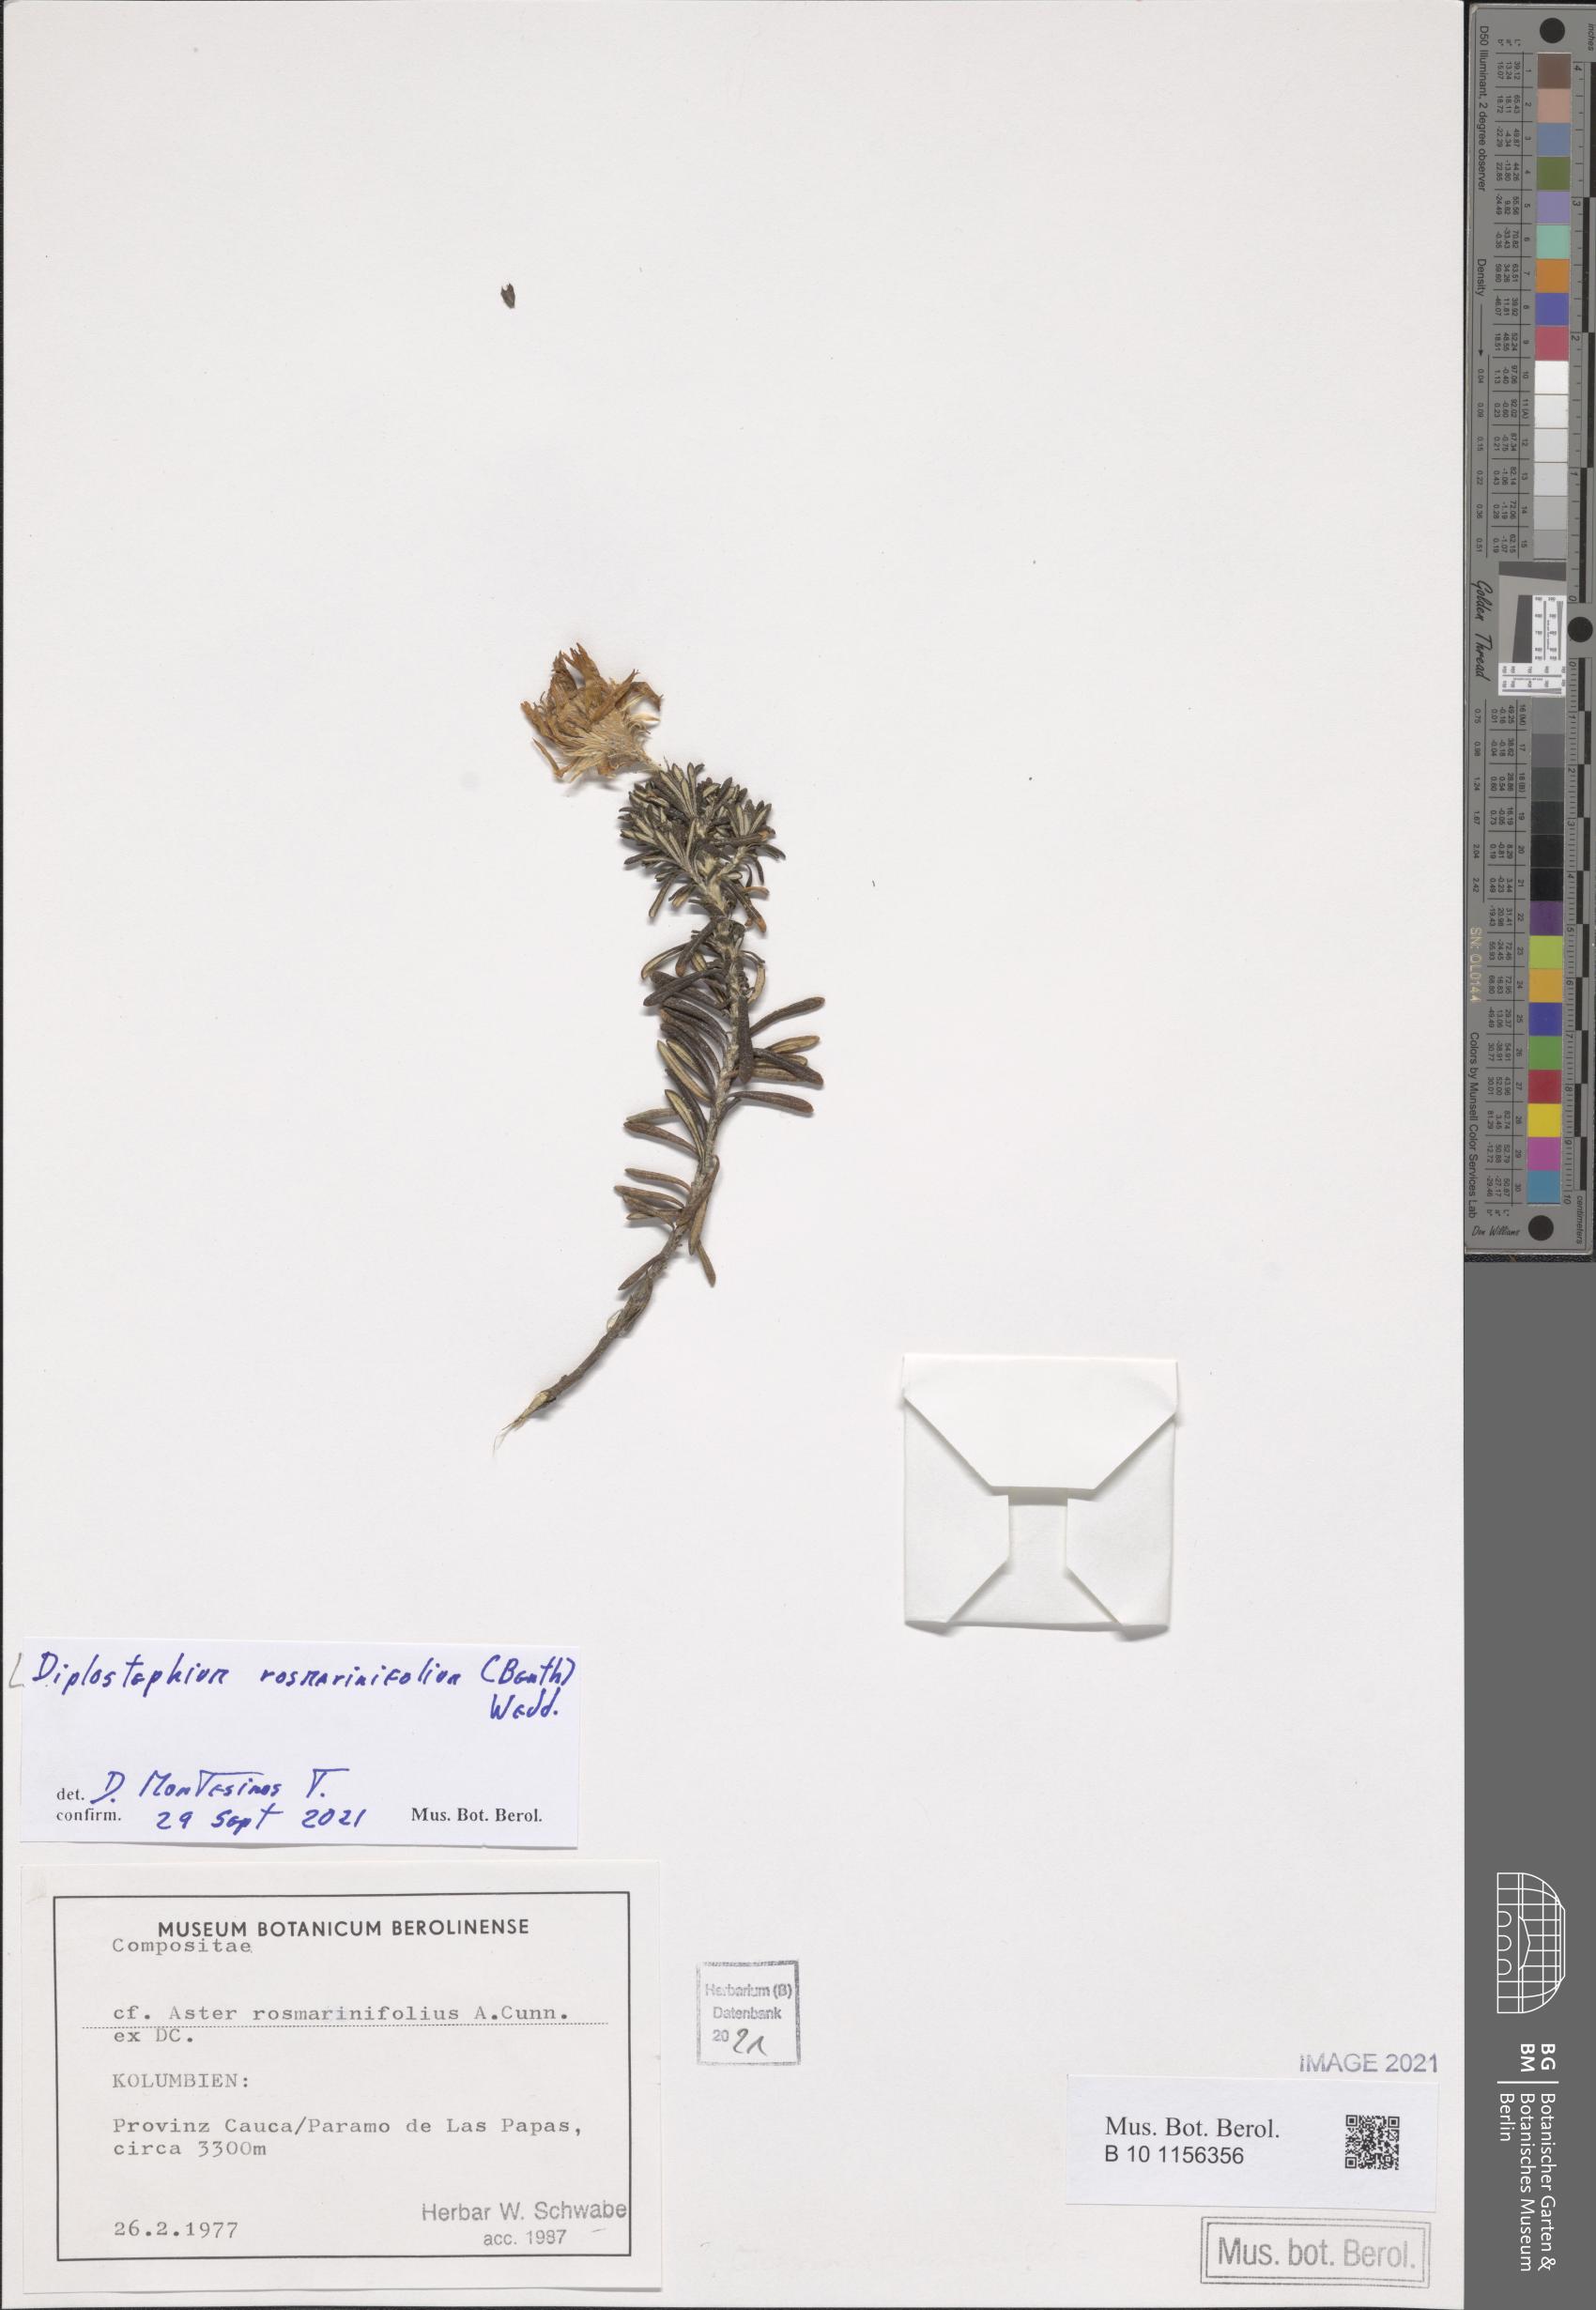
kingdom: Plantae
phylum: Tracheophyta
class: Magnoliopsida
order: Asterales
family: Asteraceae
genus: Linochilus
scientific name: Linochilus rosmarinifolius
